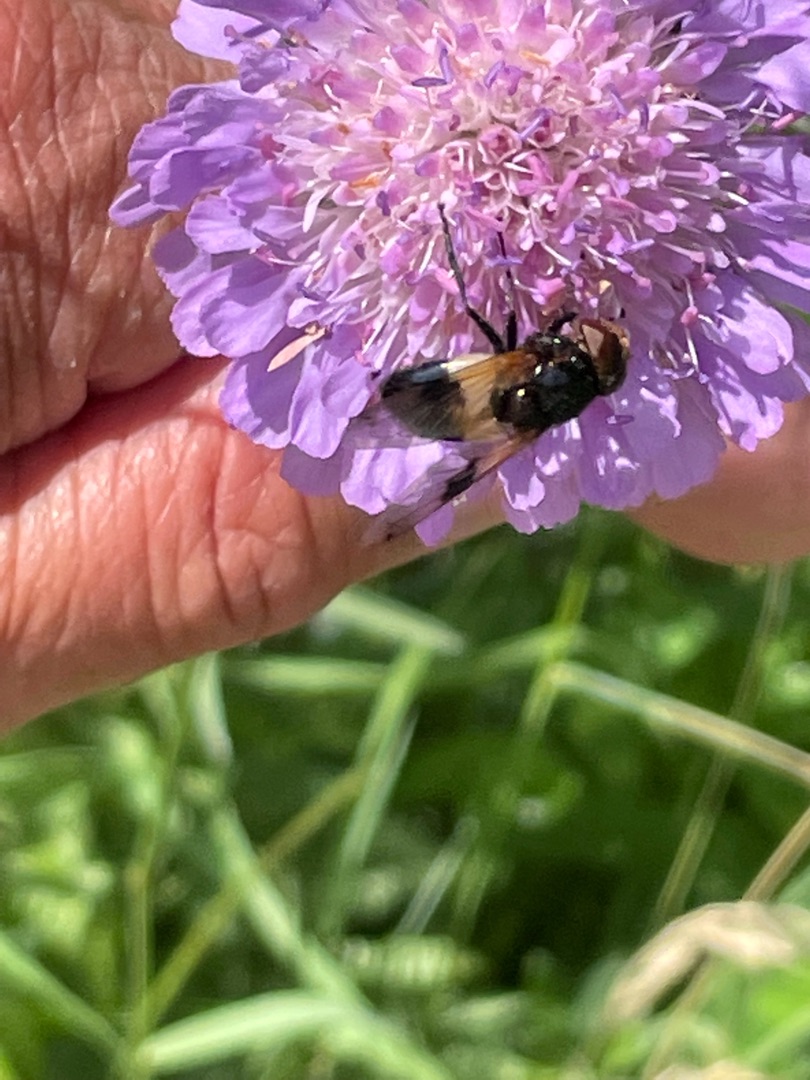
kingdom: Animalia
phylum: Arthropoda
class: Insecta
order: Diptera
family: Syrphidae
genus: Volucella
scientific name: Volucella pellucens
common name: Hvidbåndet humlesvirreflue
